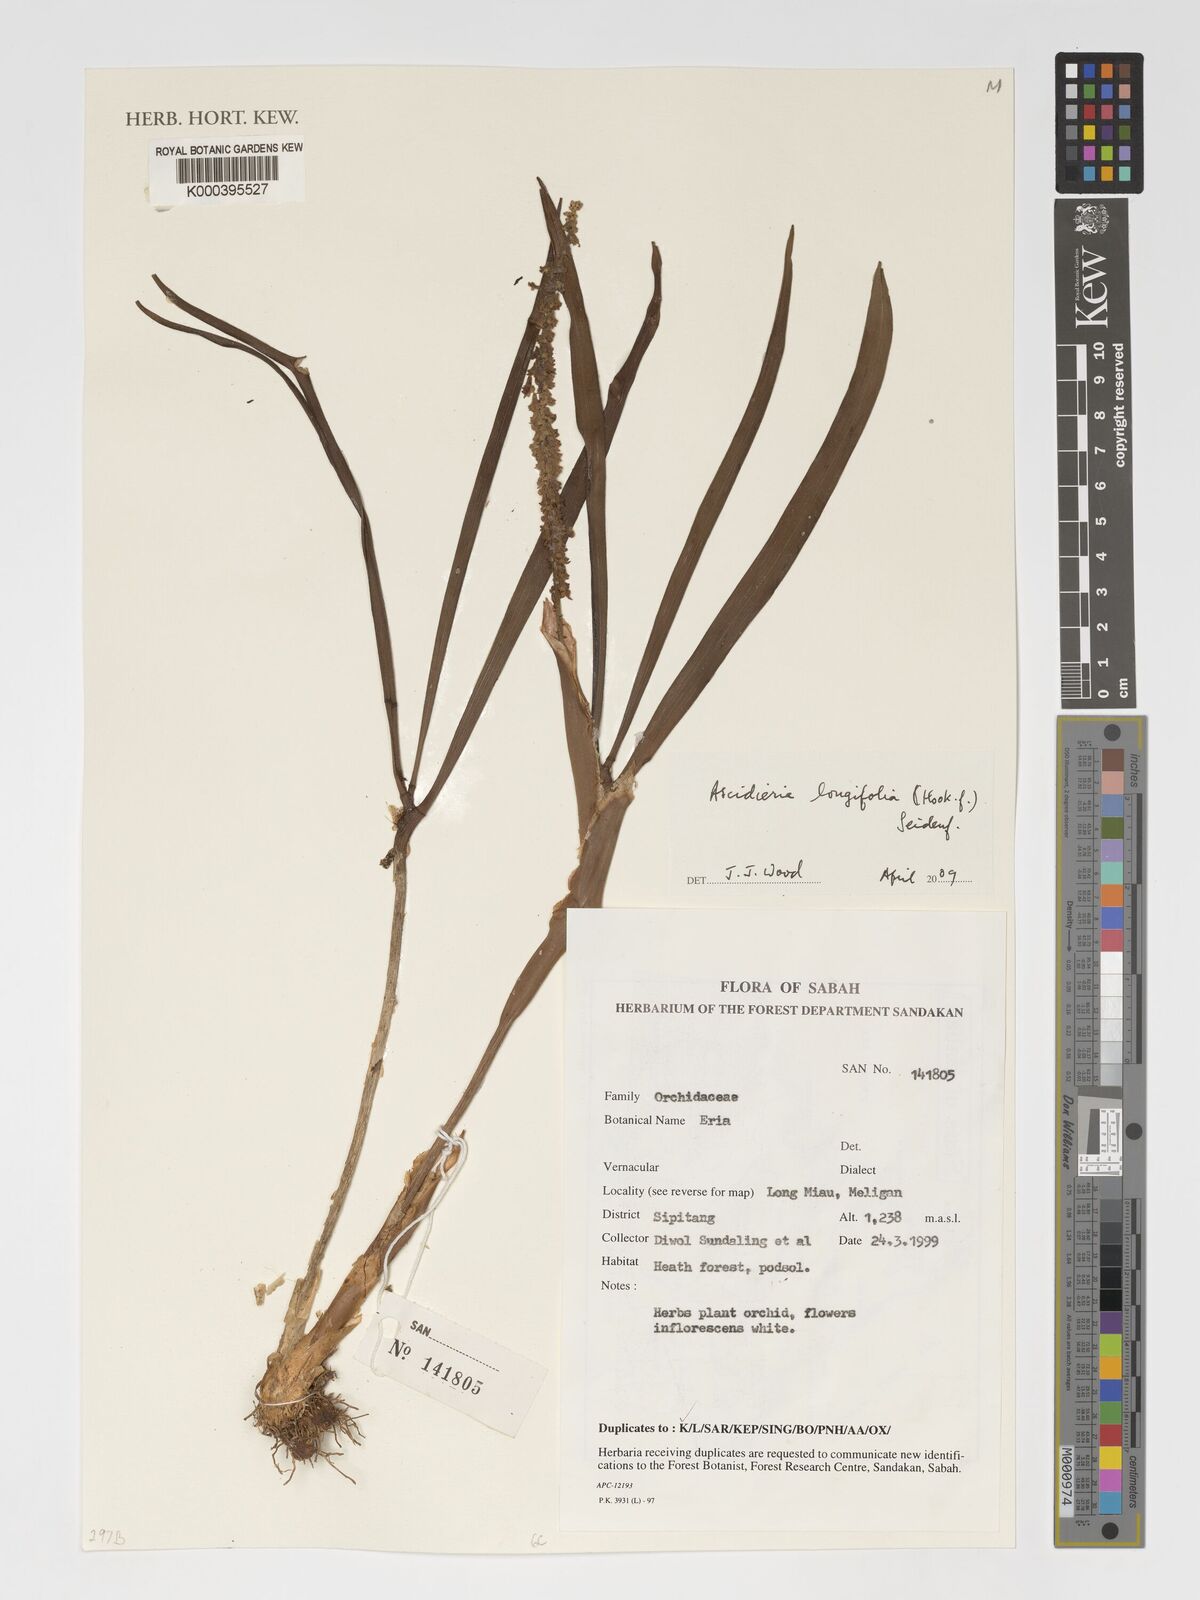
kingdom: Plantae
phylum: Tracheophyta
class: Liliopsida
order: Asparagales
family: Orchidaceae
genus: Ascidieria
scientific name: Ascidieria longifolia
